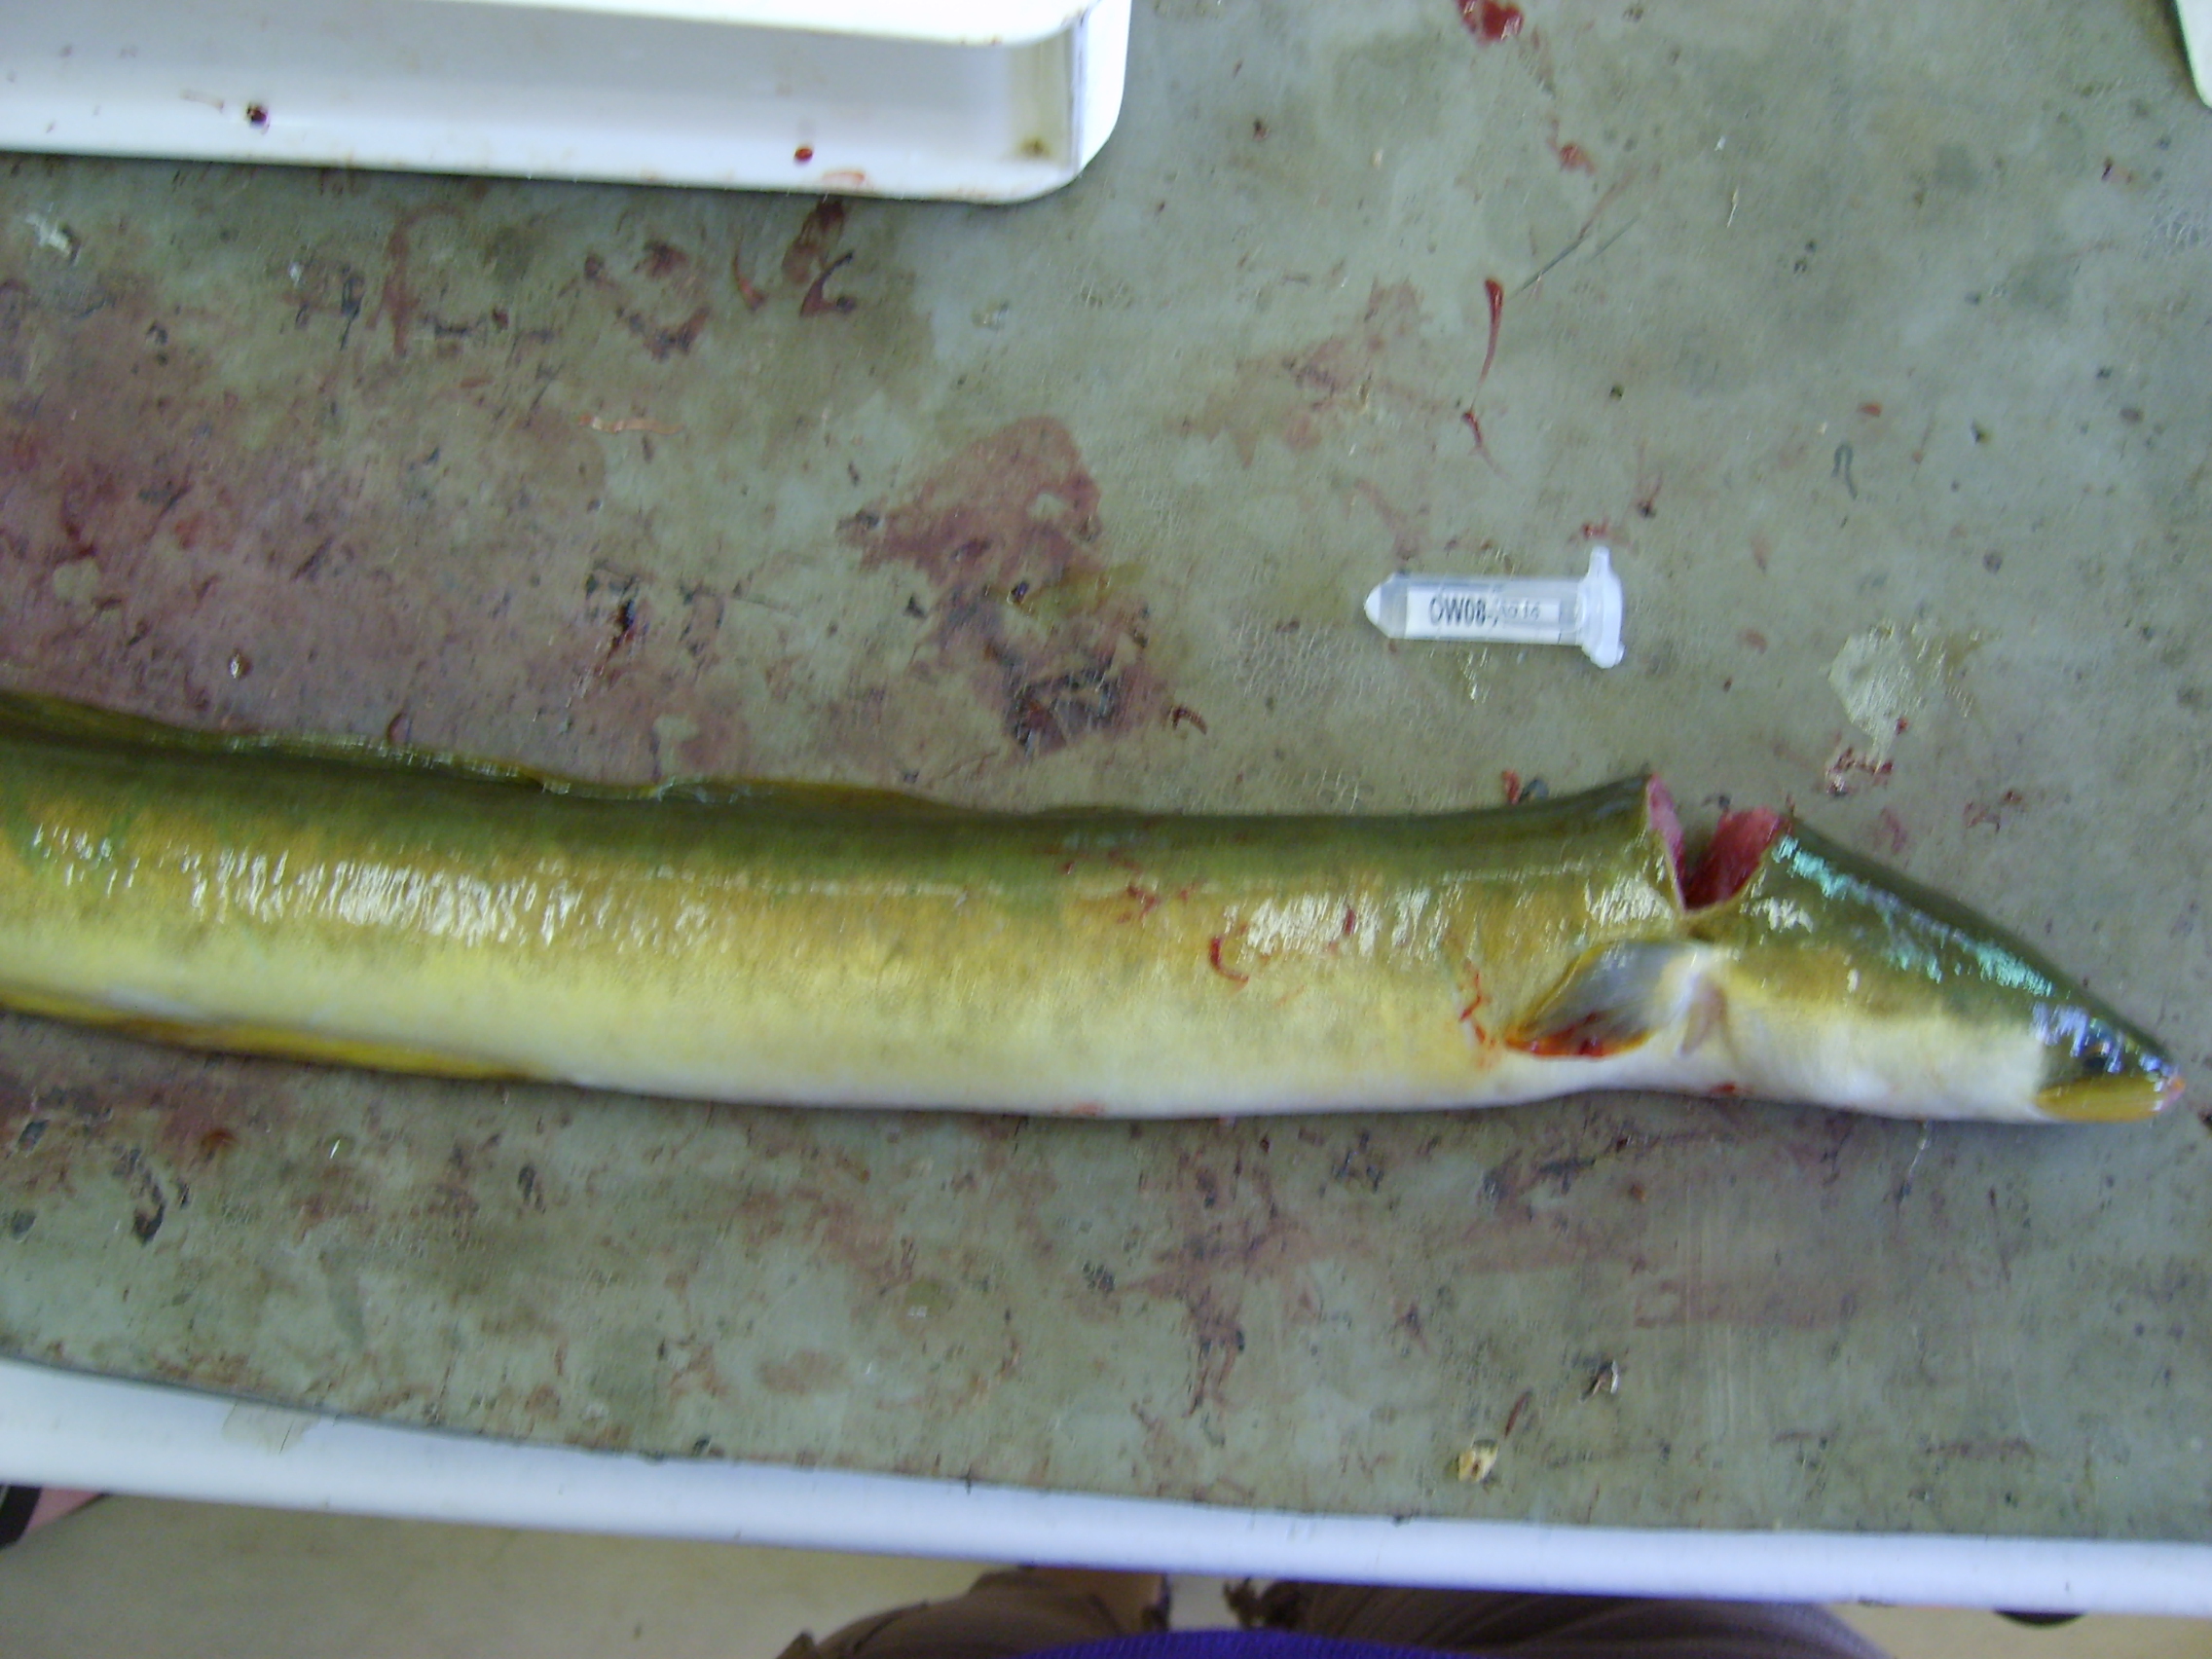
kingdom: Animalia
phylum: Chordata
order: Anguilliformes
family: Anguillidae
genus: Anguilla
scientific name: Anguilla mossambica
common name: African longfin eel
